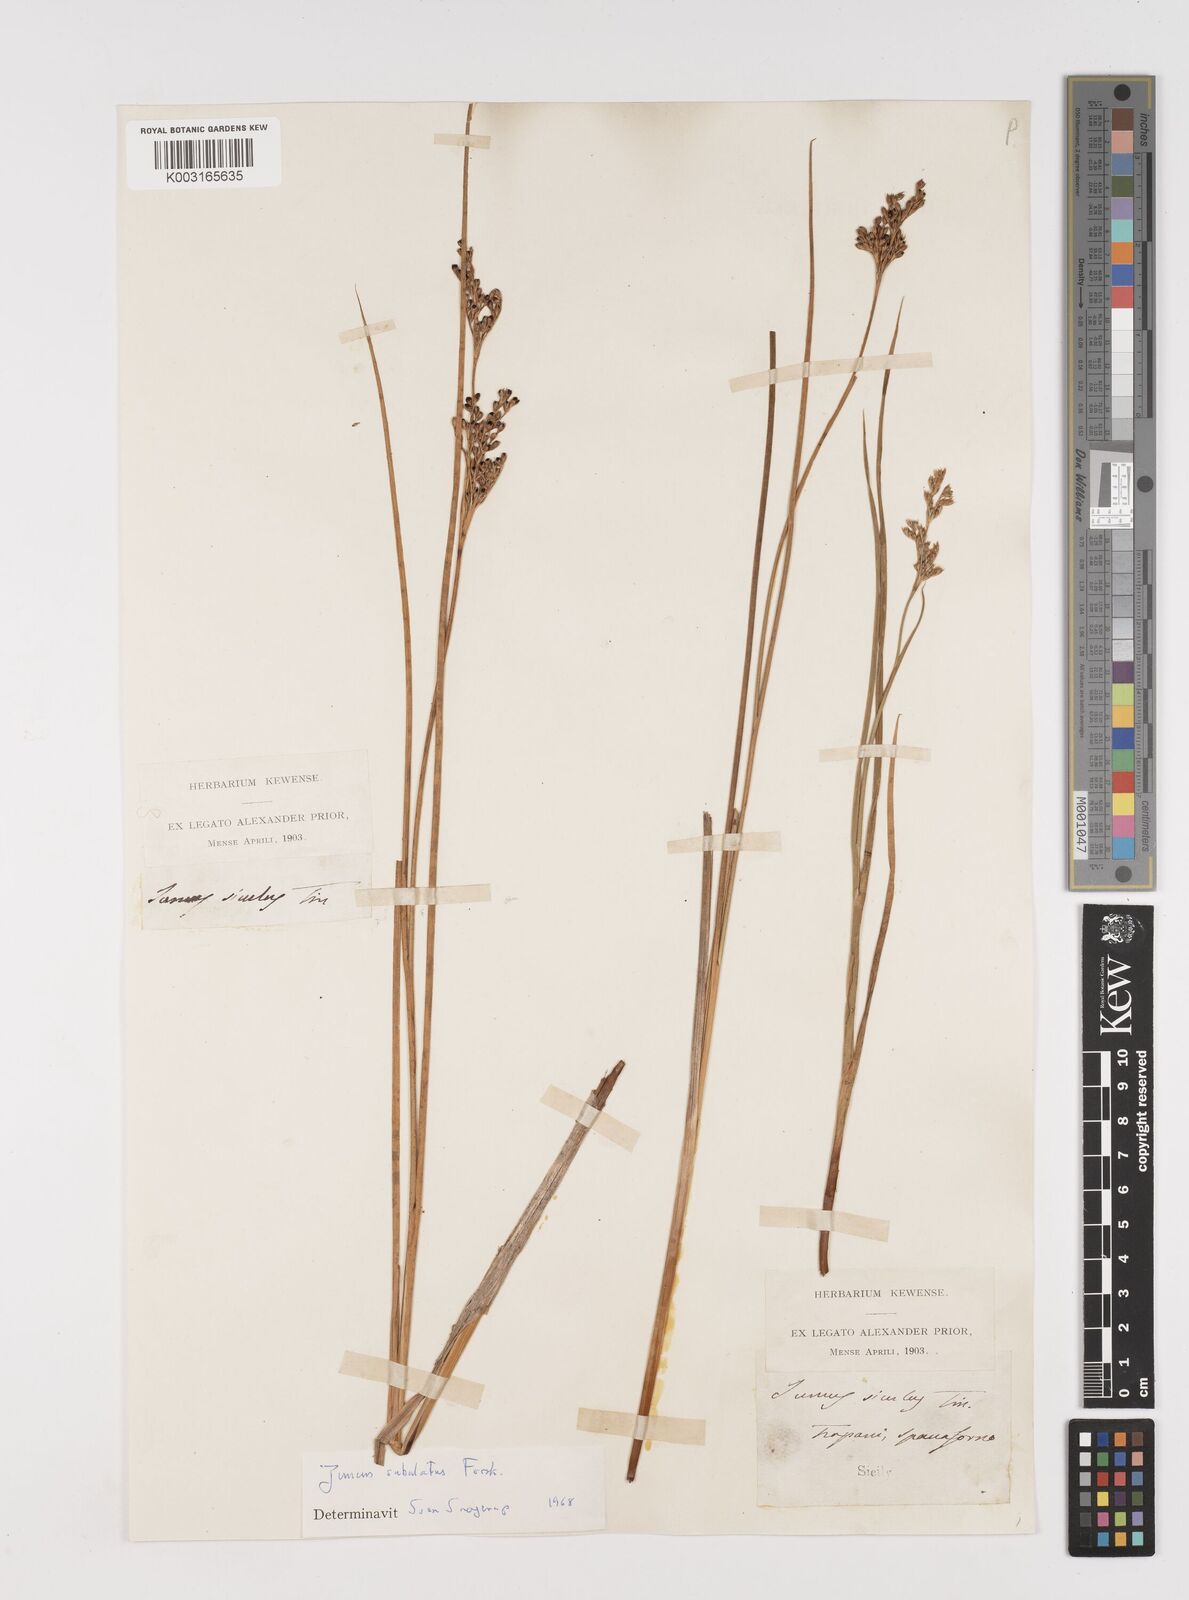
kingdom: Plantae
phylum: Tracheophyta
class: Liliopsida
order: Poales
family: Juncaceae
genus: Juncus
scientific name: Juncus subulatus
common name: Somerset rush
